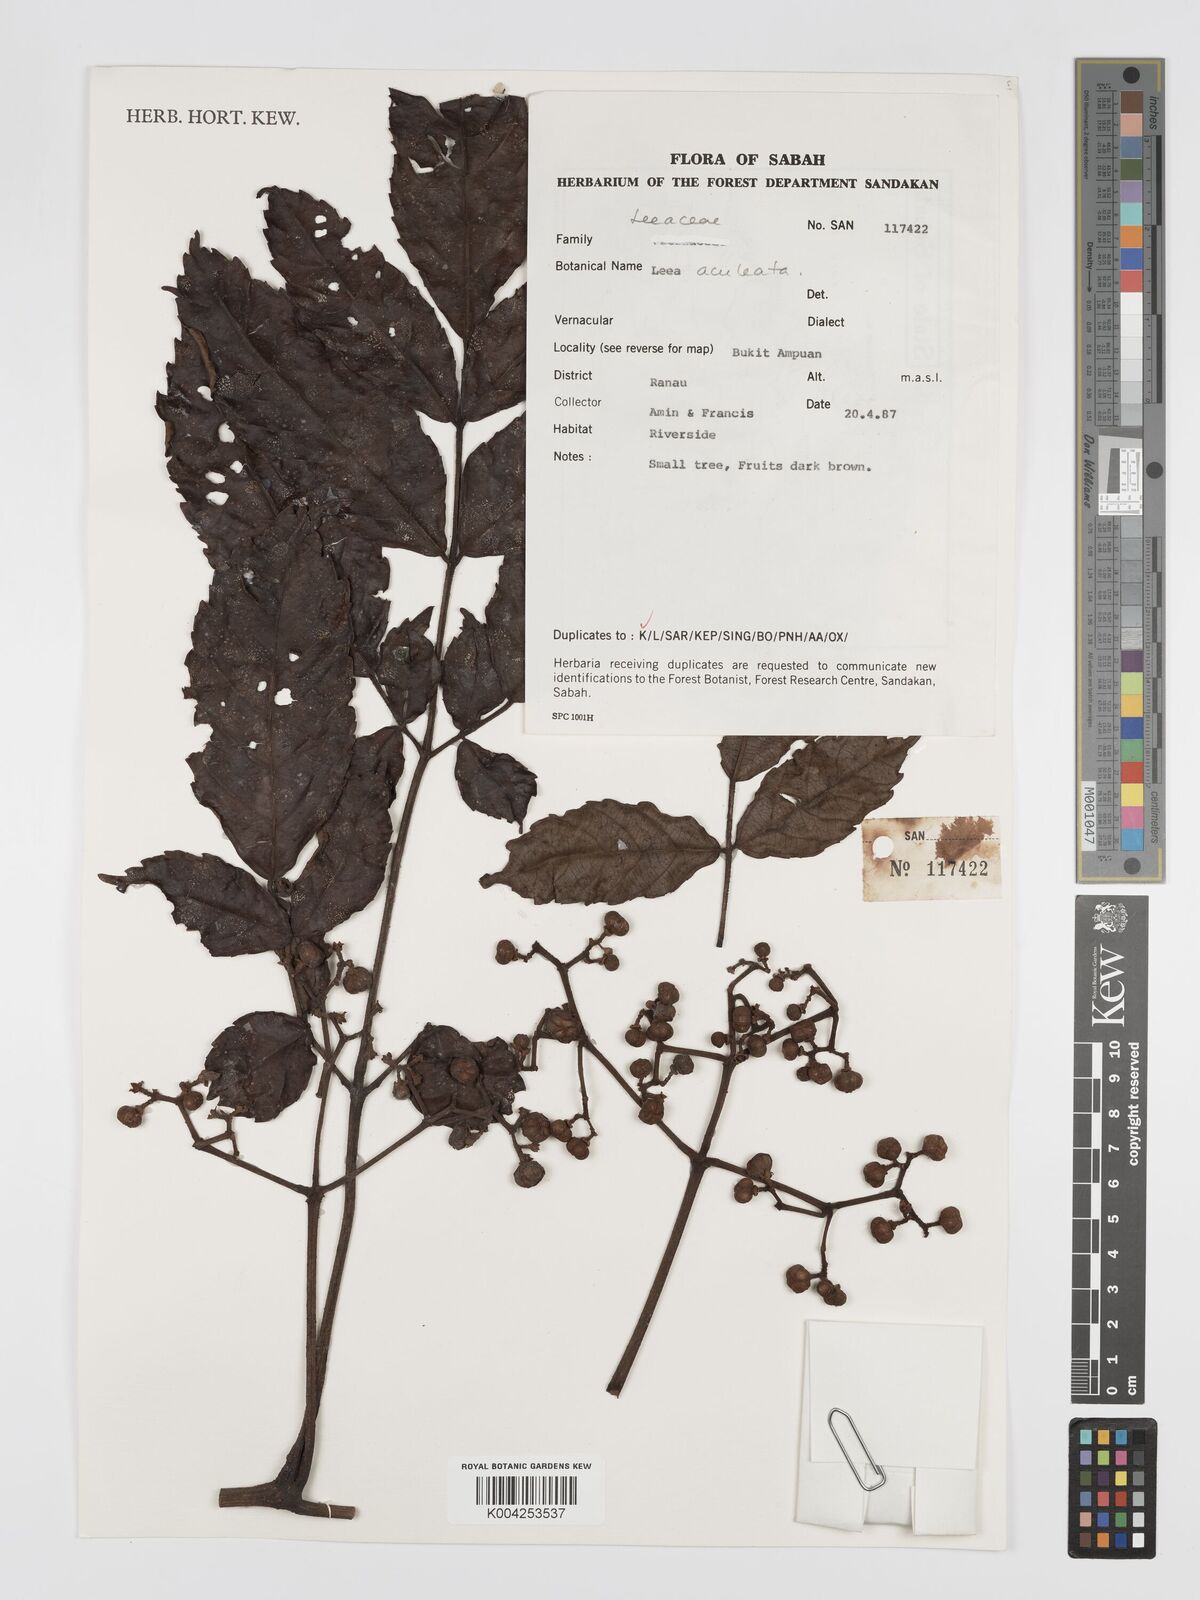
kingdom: Plantae
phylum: Tracheophyta
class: Magnoliopsida
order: Vitales
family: Vitaceae
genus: Leea
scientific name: Leea aculeata
